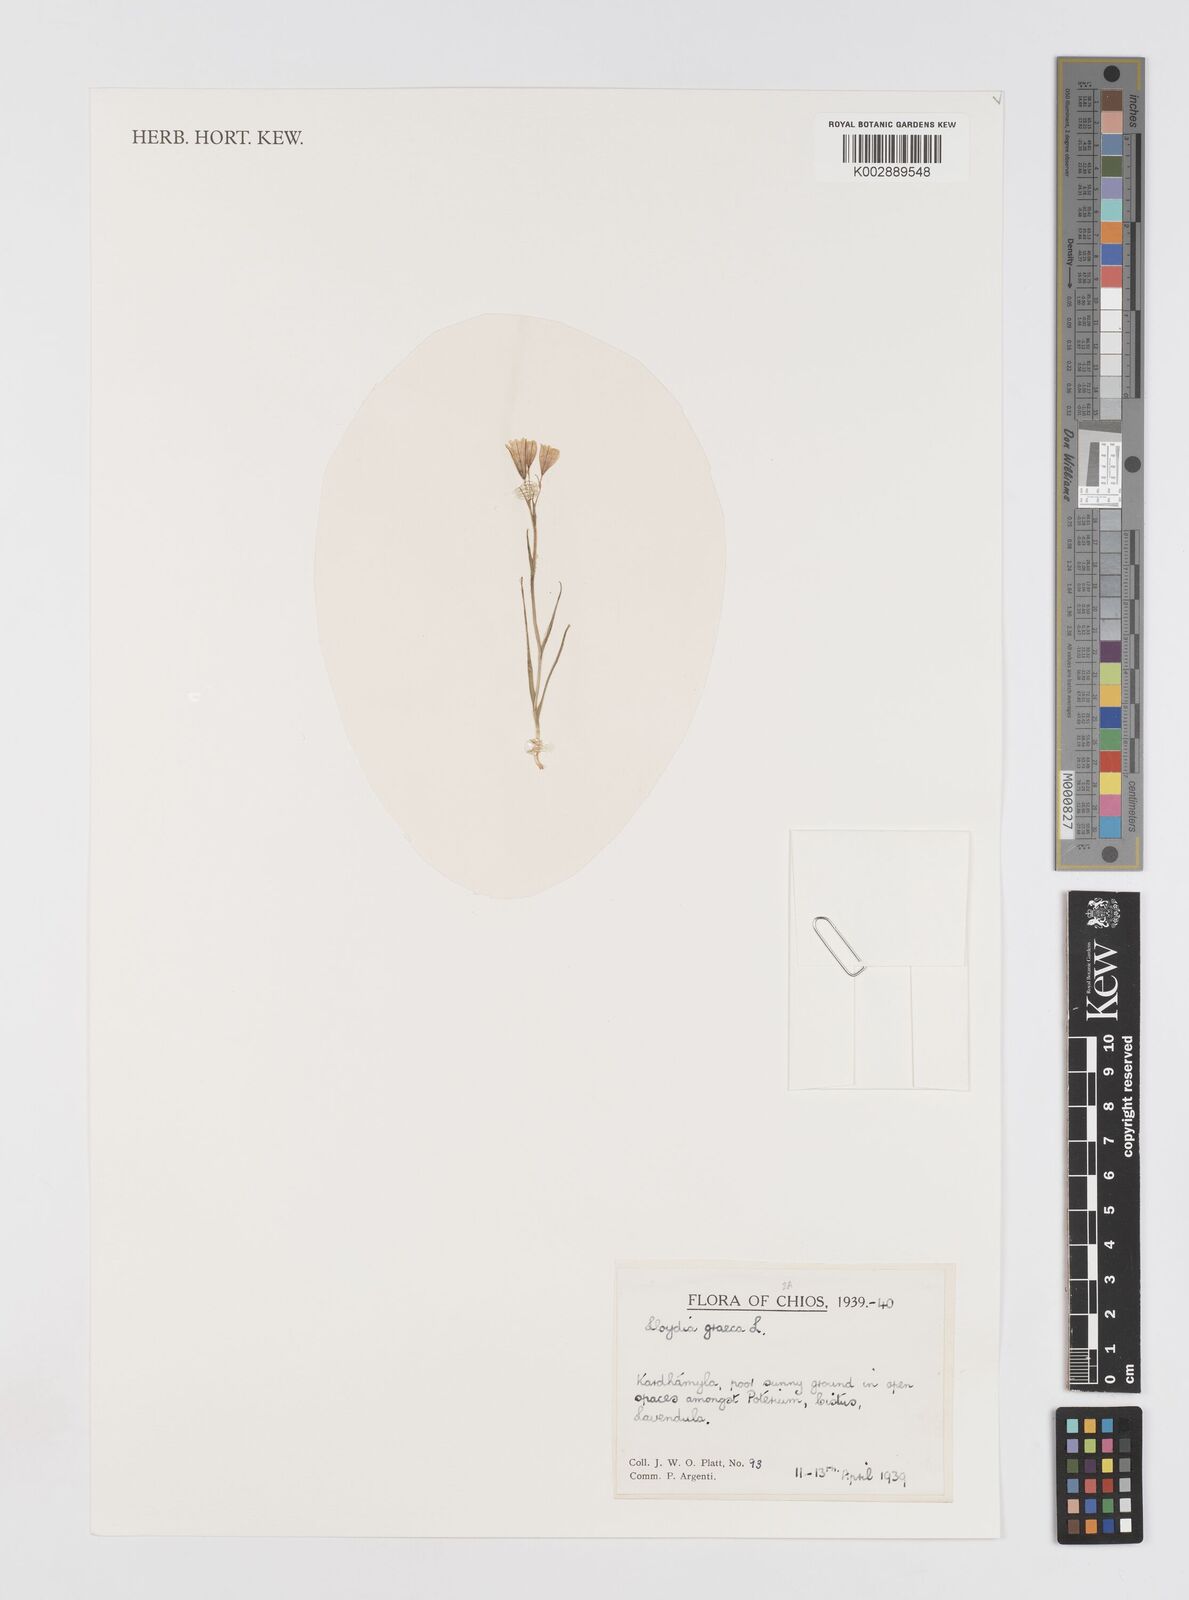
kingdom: Plantae
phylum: Tracheophyta
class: Liliopsida
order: Liliales
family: Liliaceae
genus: Gagea
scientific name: Gagea graeca
